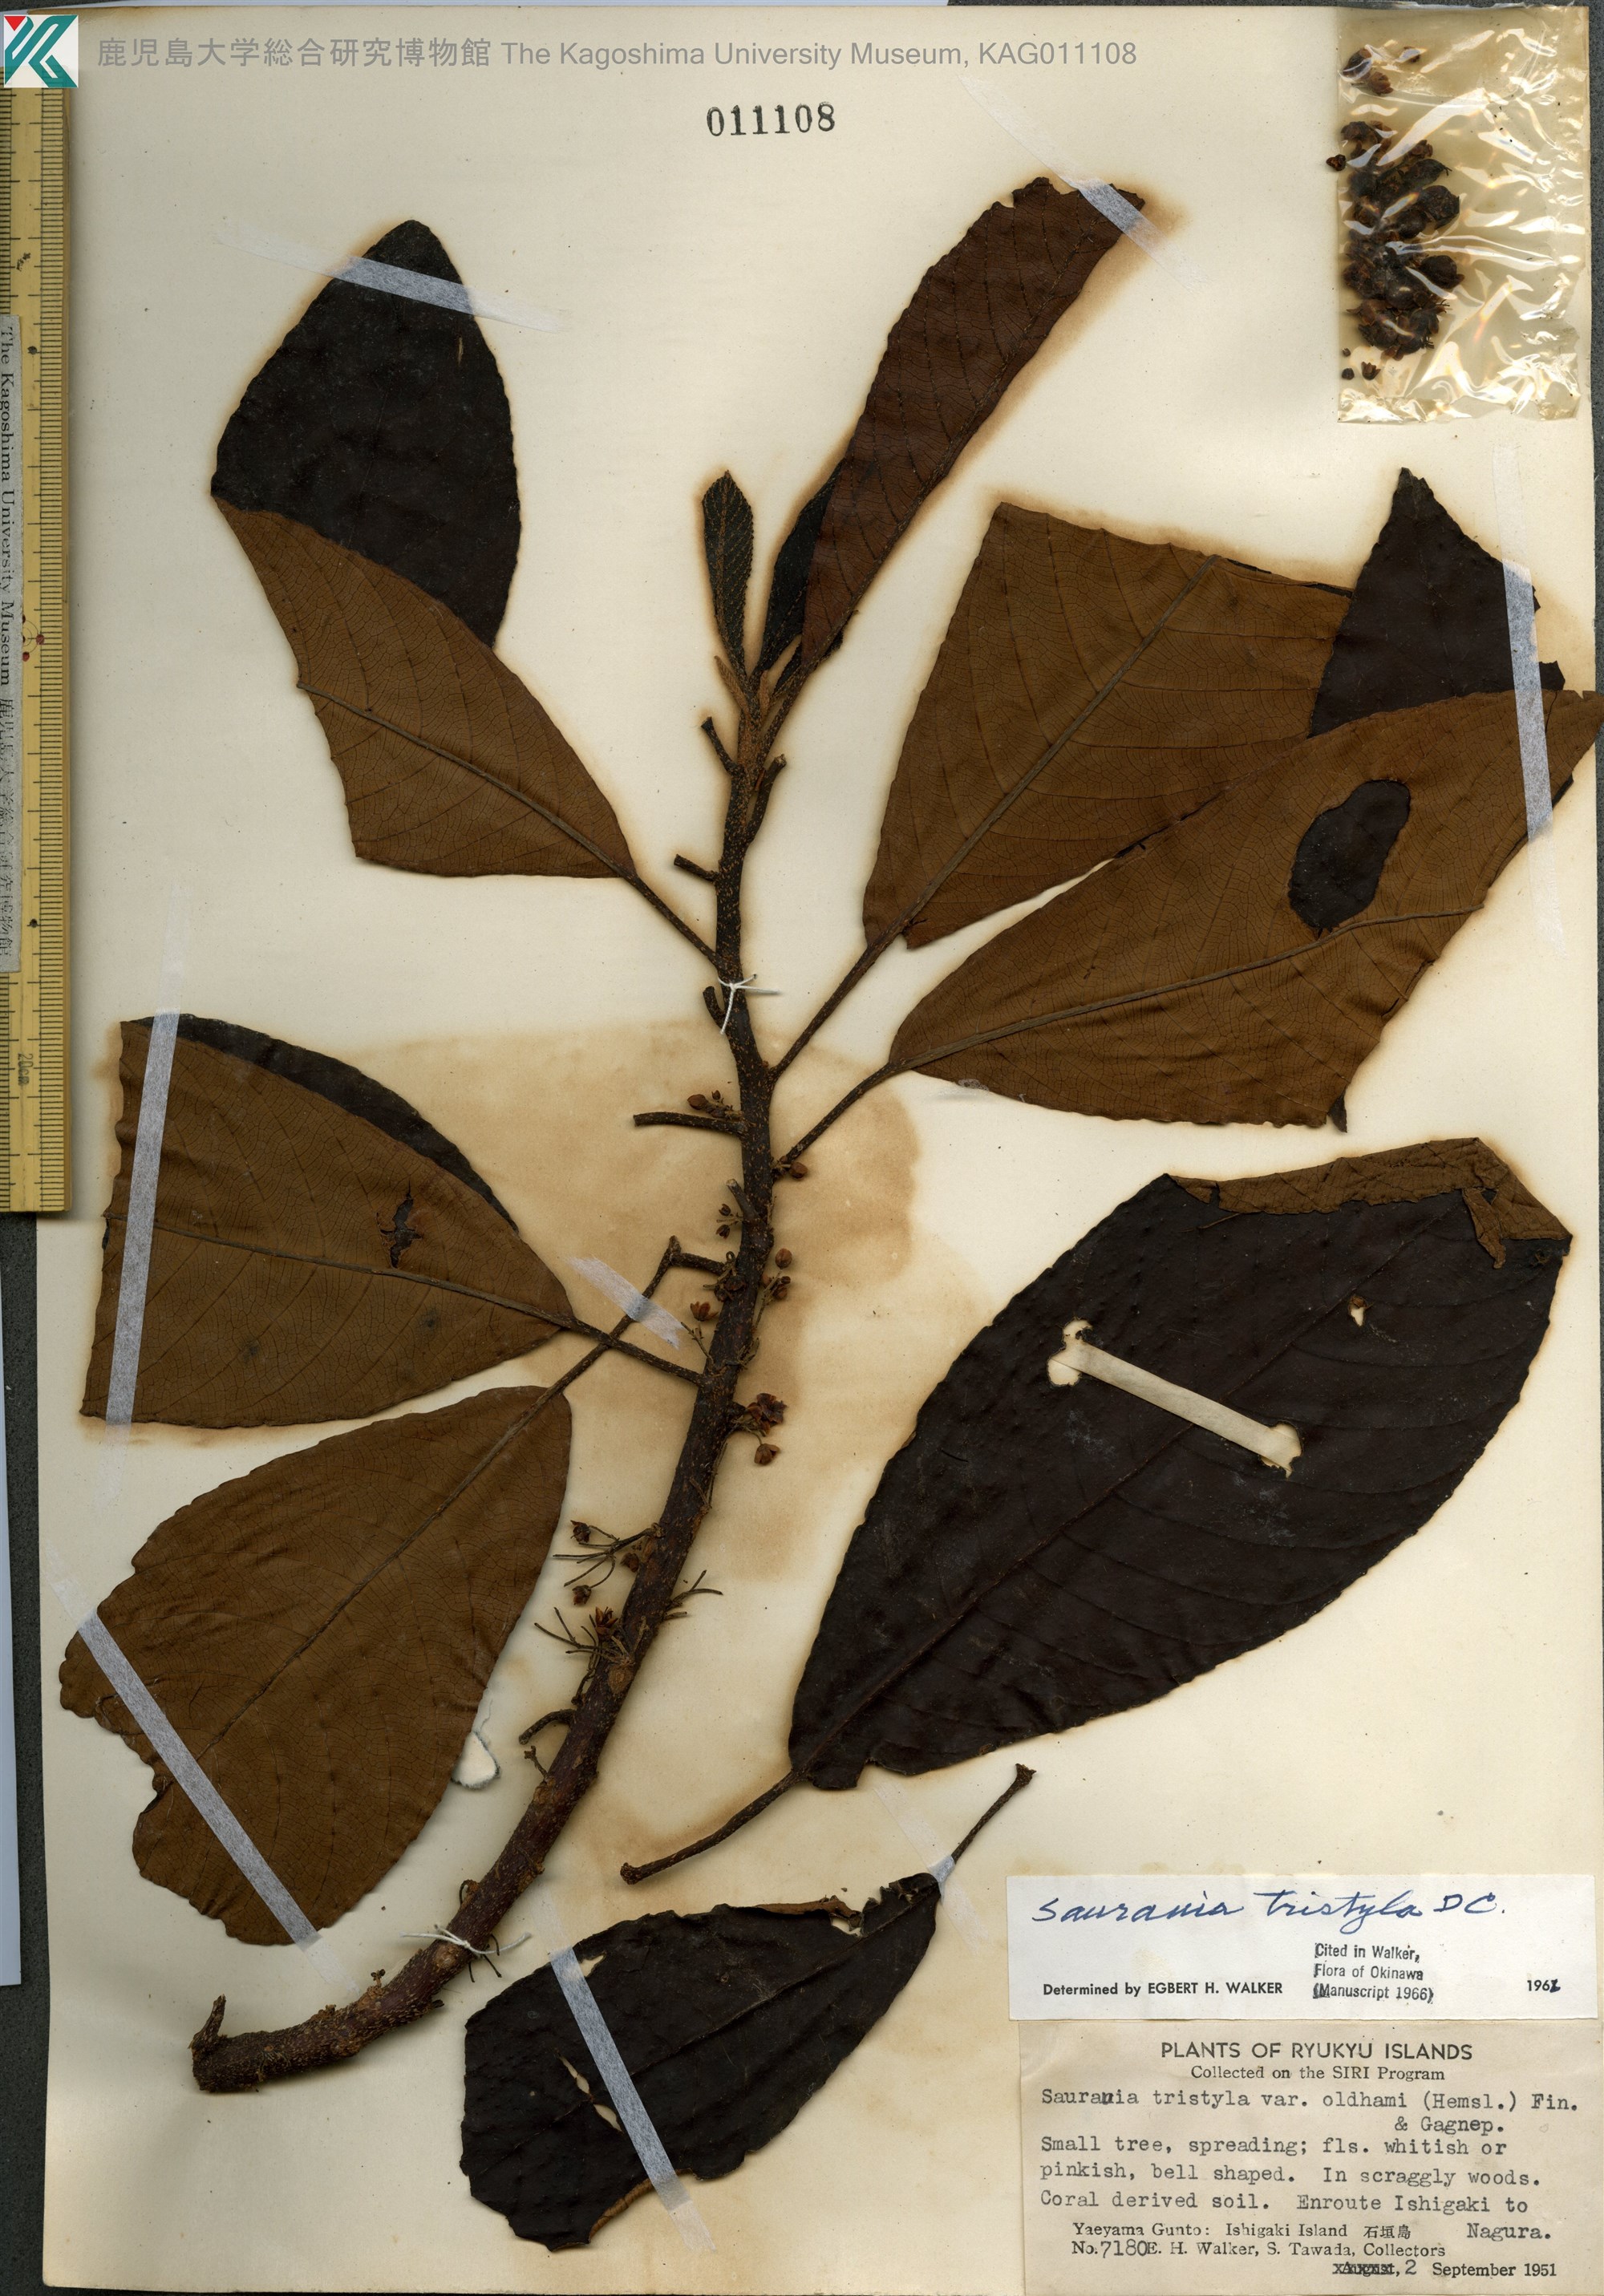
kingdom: Plantae
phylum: Tracheophyta
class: Magnoliopsida
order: Ericales
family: Actinidiaceae
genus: Saurauia
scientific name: Saurauia tristyla
